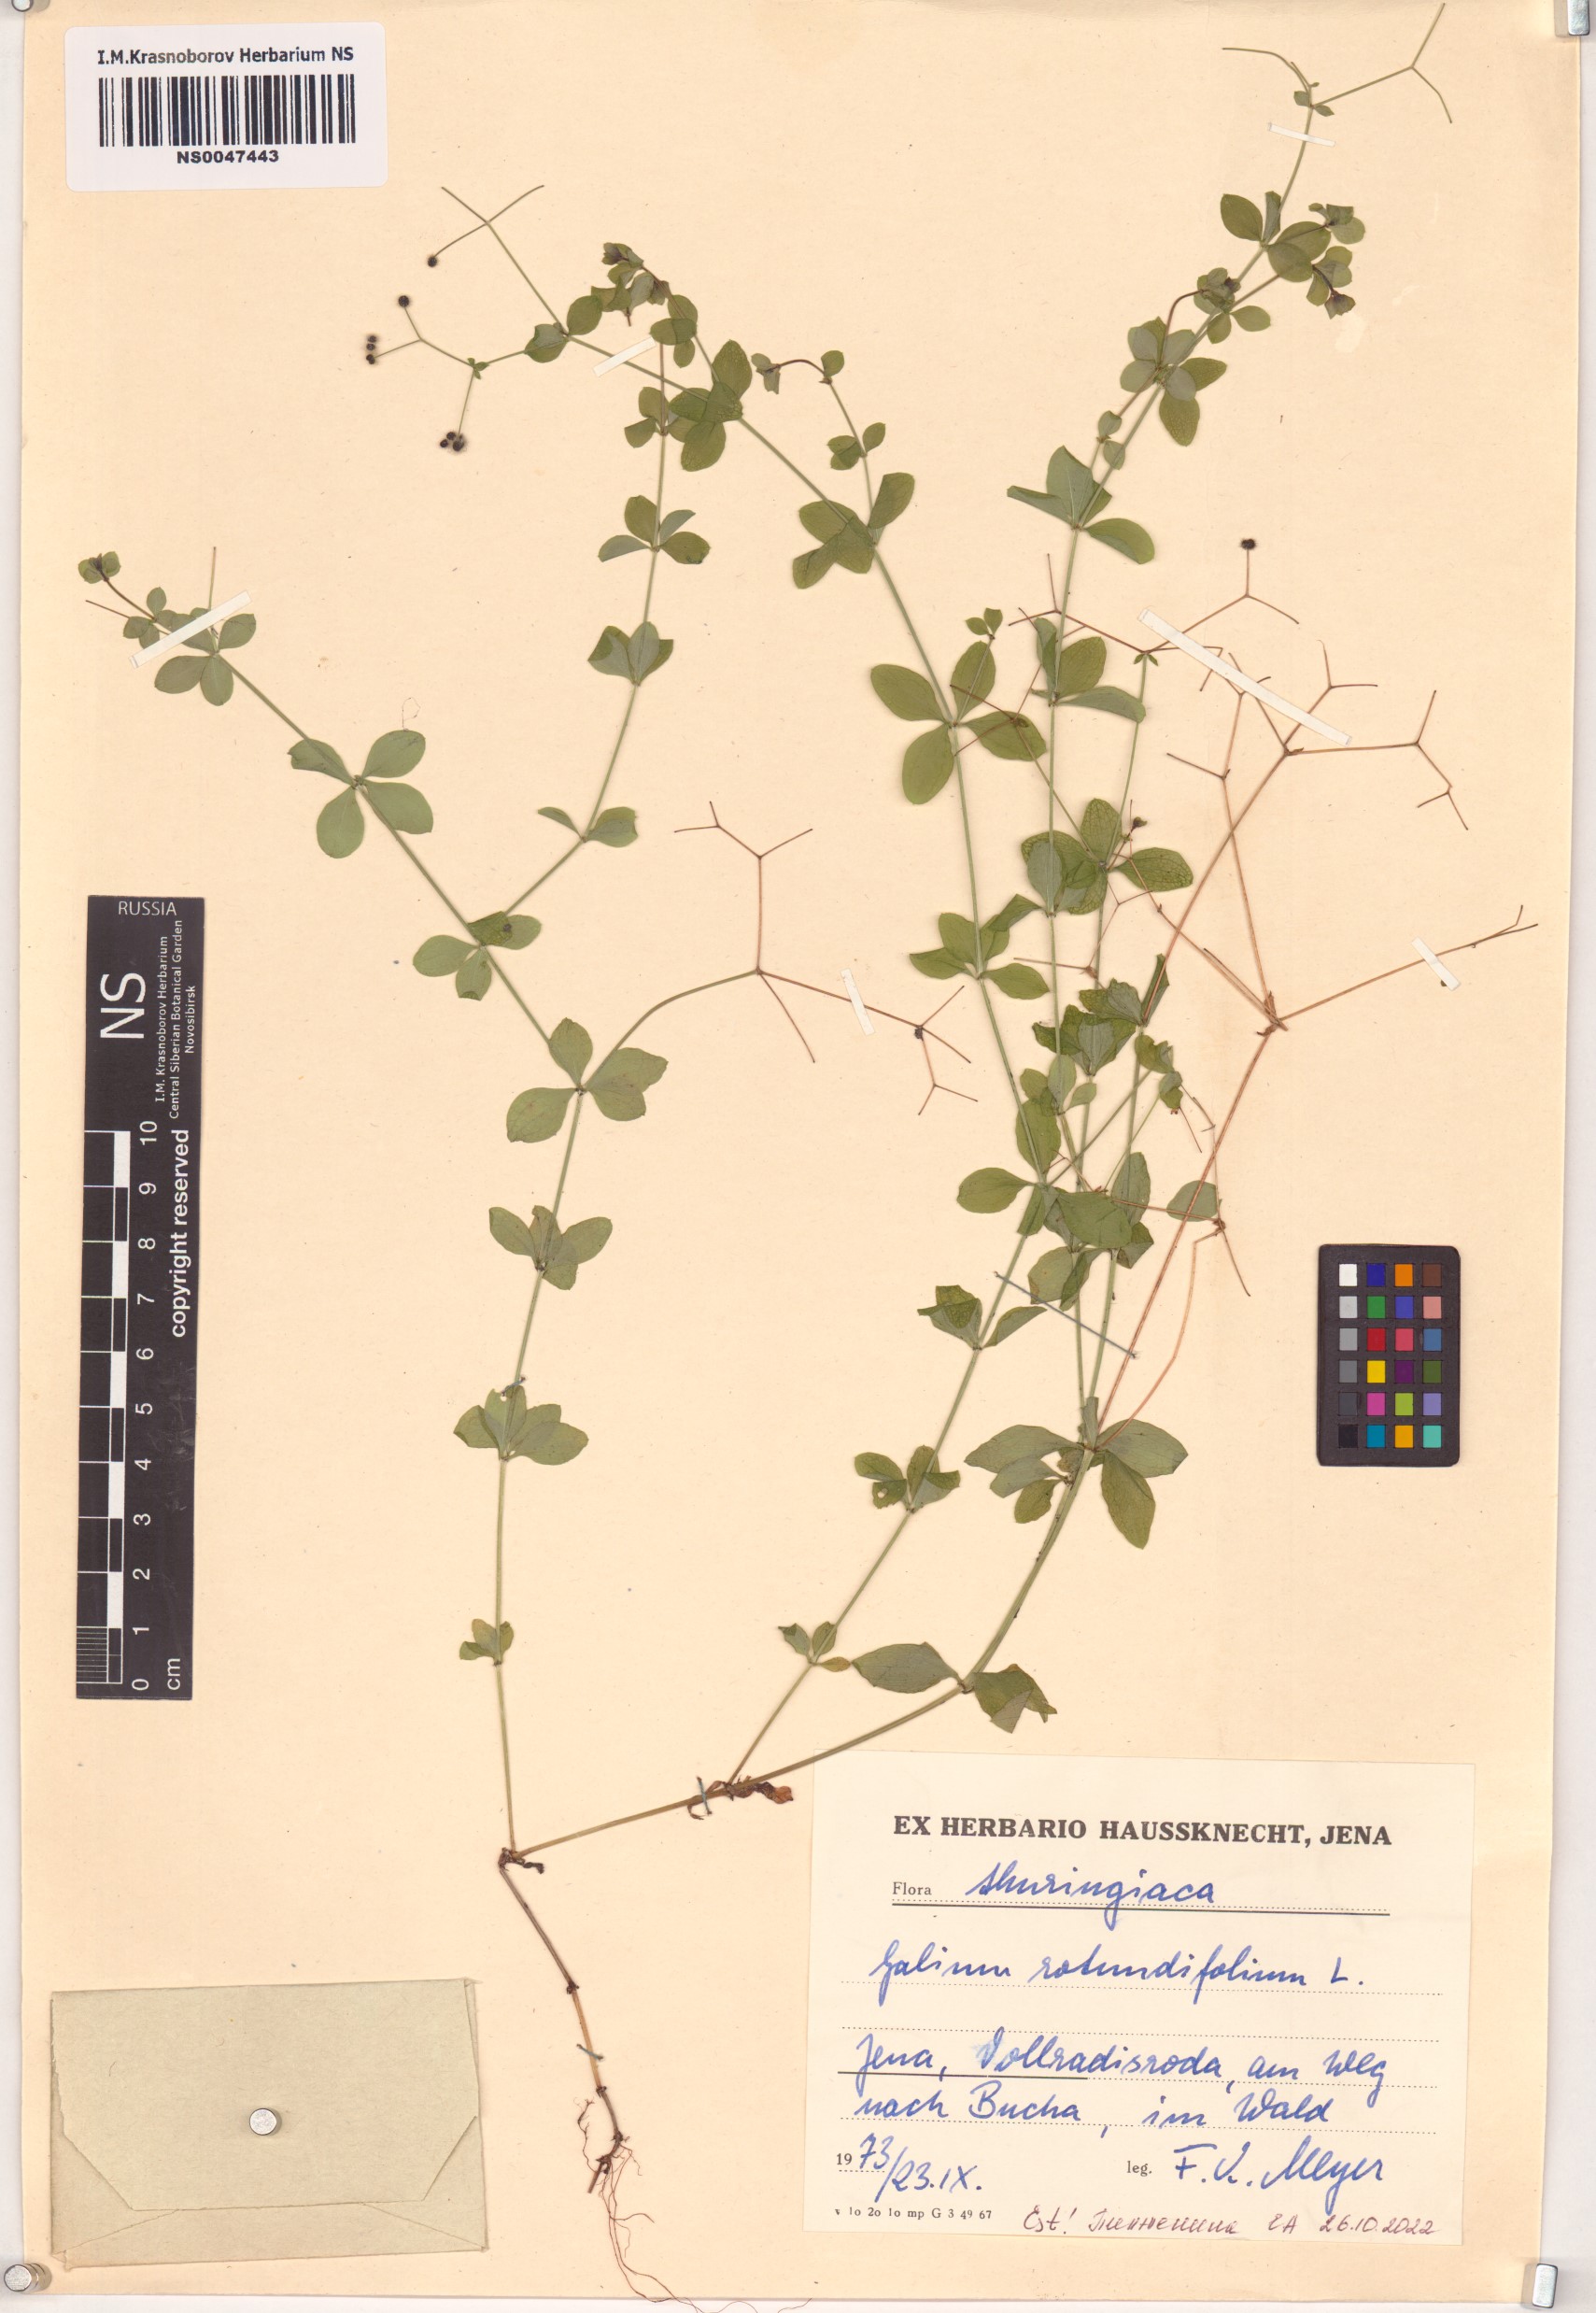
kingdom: Plantae
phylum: Tracheophyta
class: Magnoliopsida
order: Gentianales
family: Rubiaceae
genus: Galium
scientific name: Galium rotundifolium
